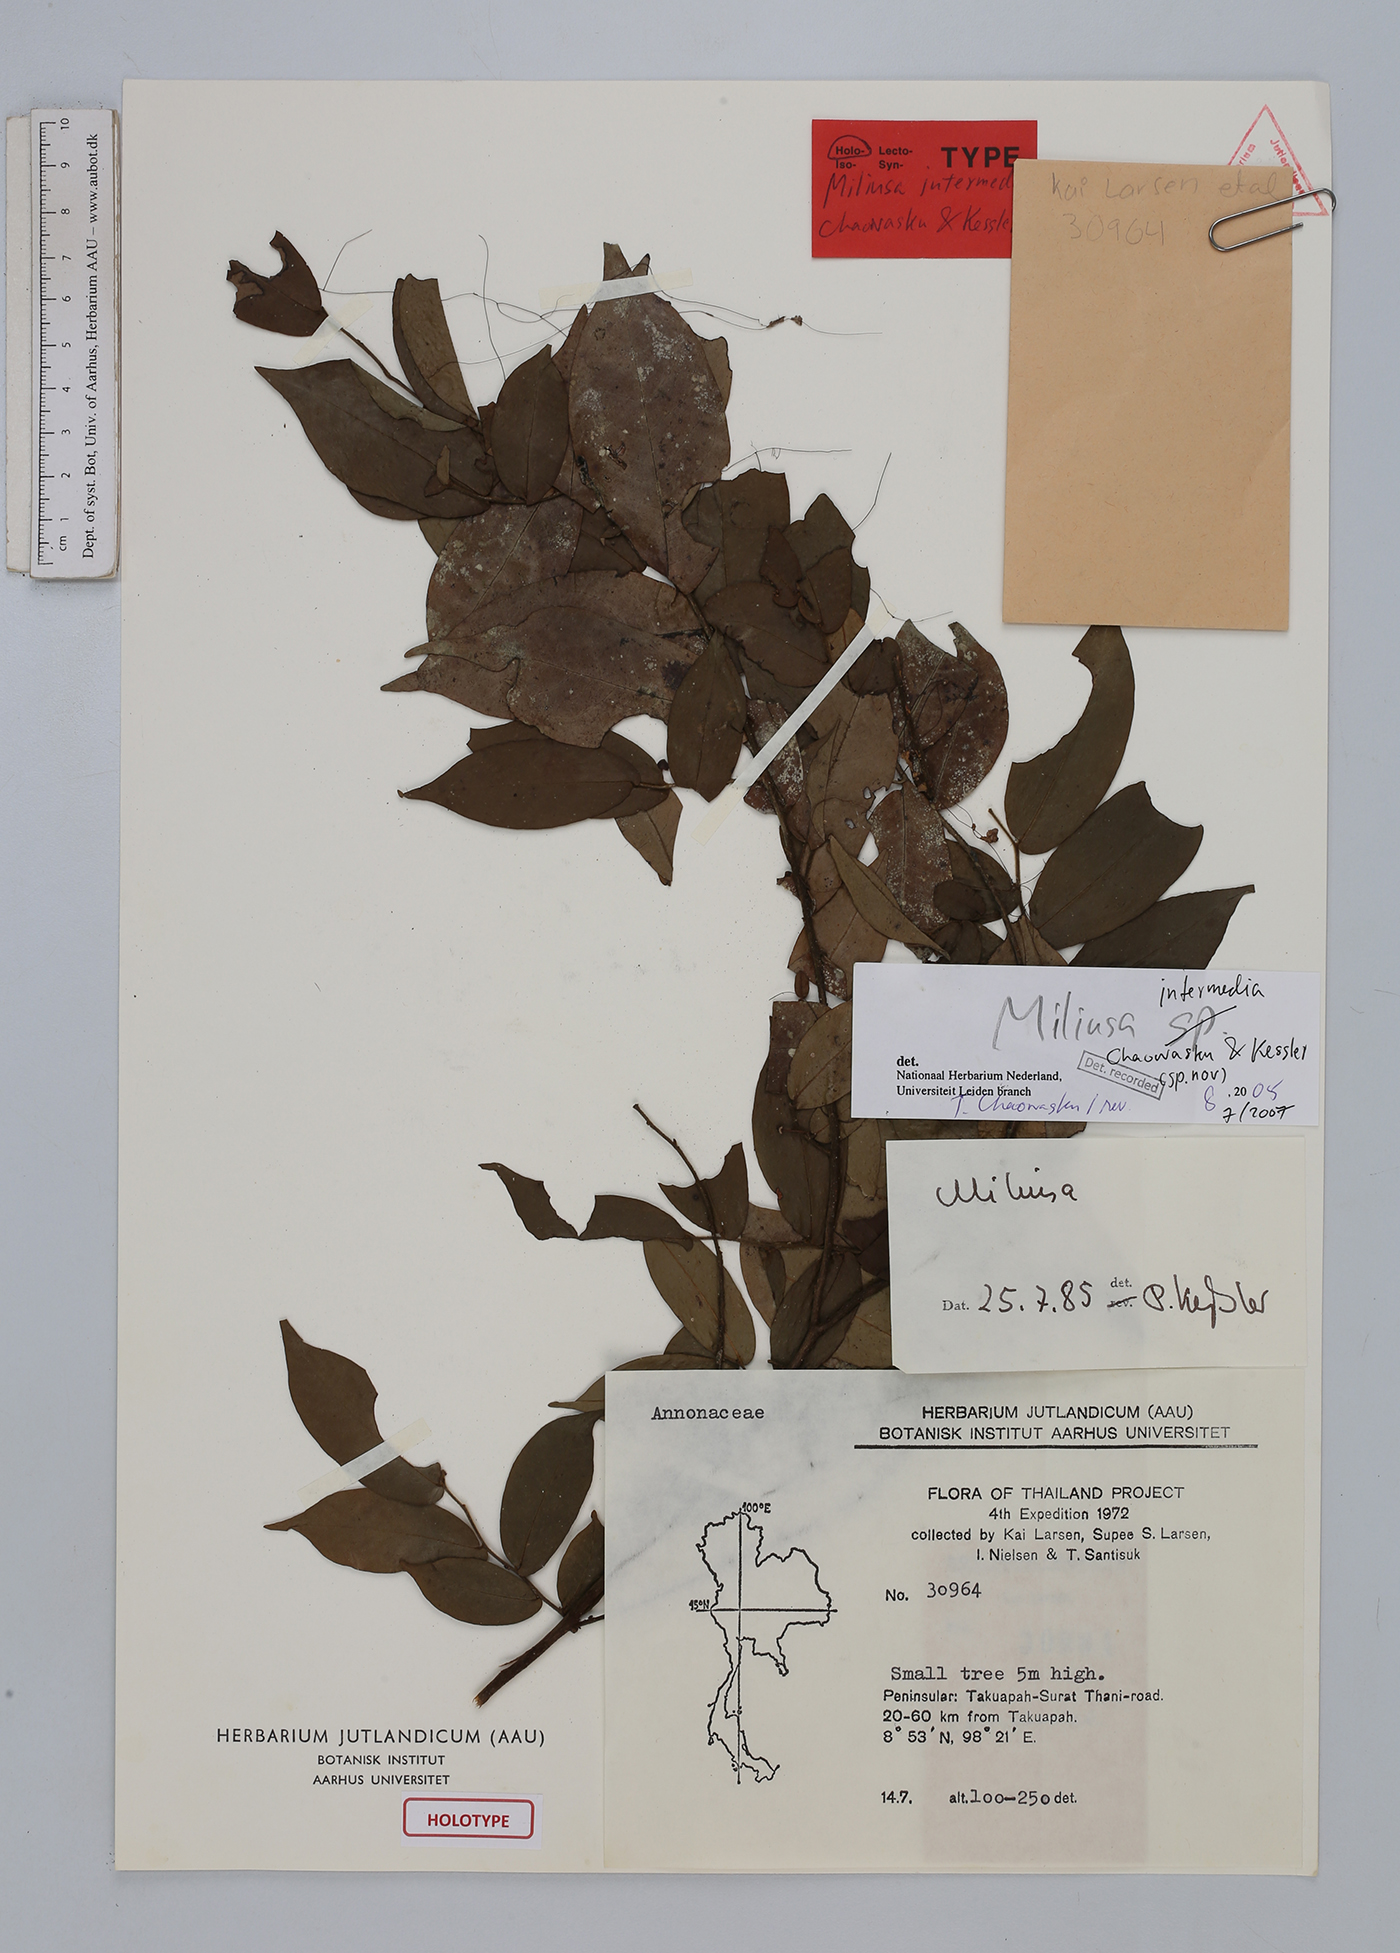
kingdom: Plantae
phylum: Tracheophyta
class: Magnoliopsida
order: Magnoliales
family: Annonaceae
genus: Miliusa
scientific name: Miliusa intermedia
